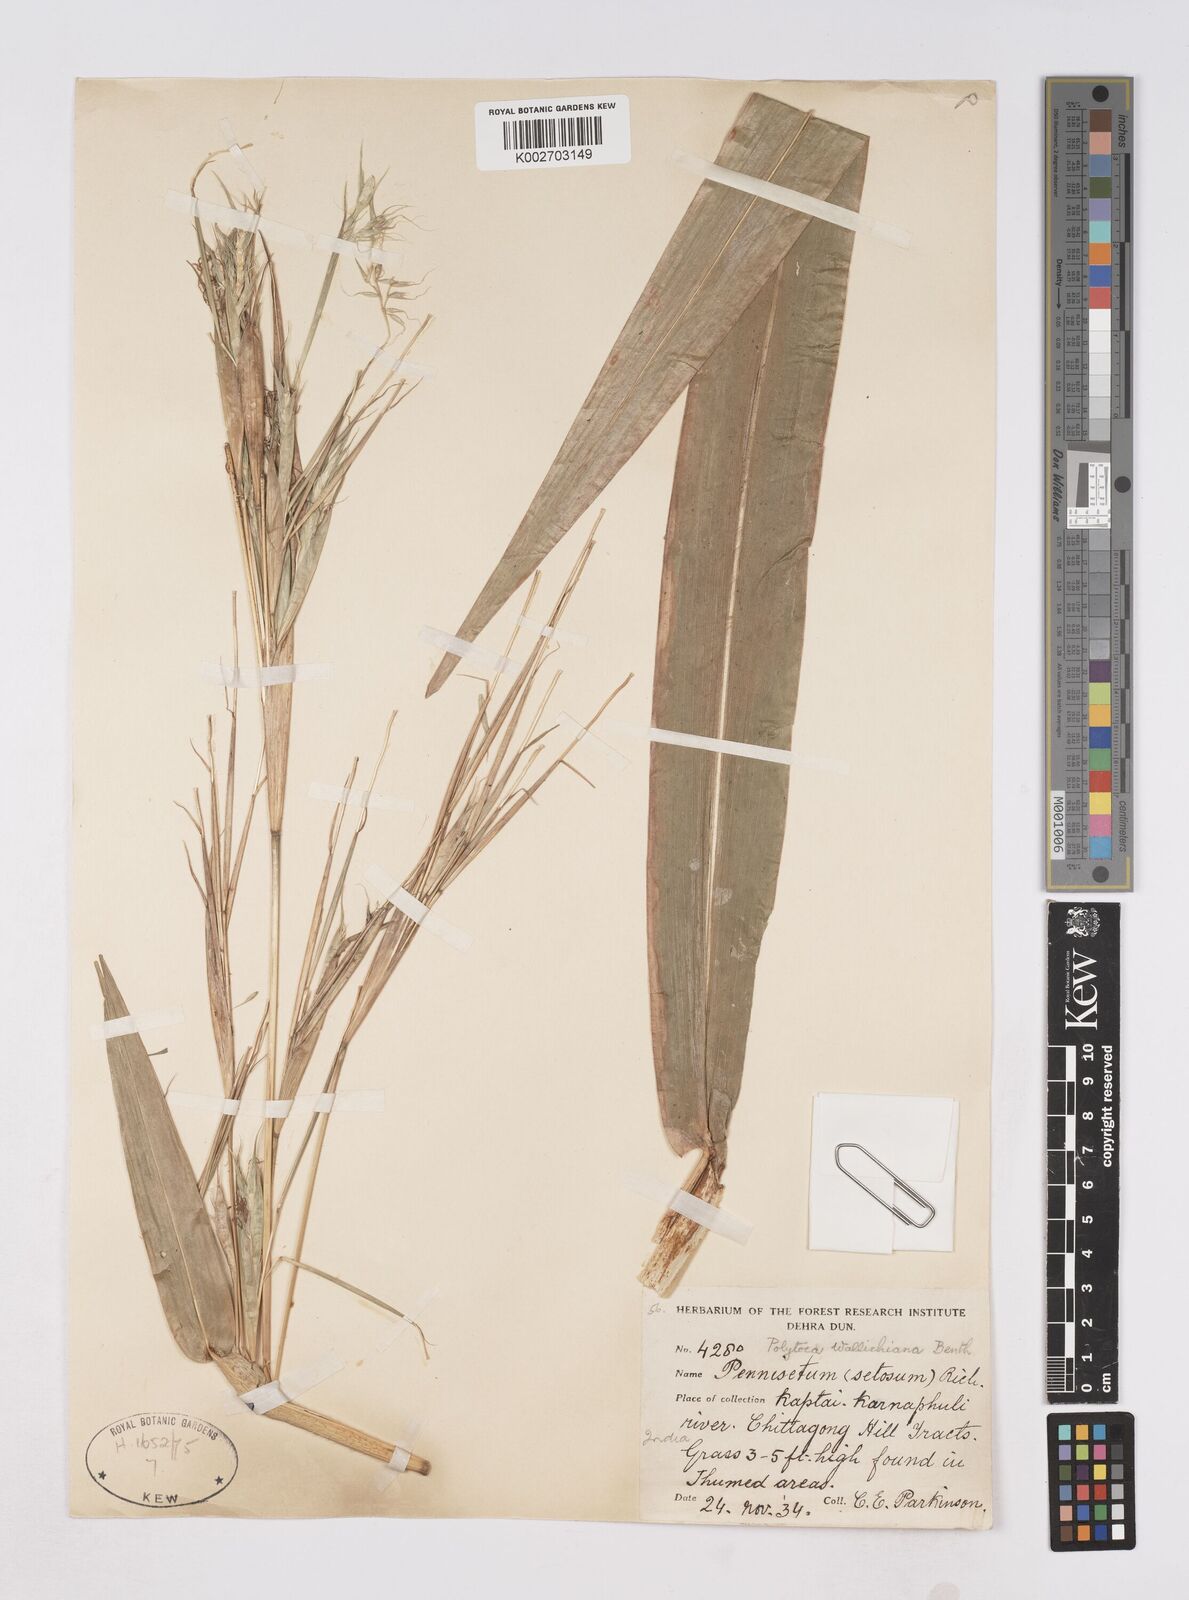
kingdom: Plantae
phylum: Tracheophyta
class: Liliopsida
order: Poales
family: Poaceae
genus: Polytoca
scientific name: Polytoca wallichiana
